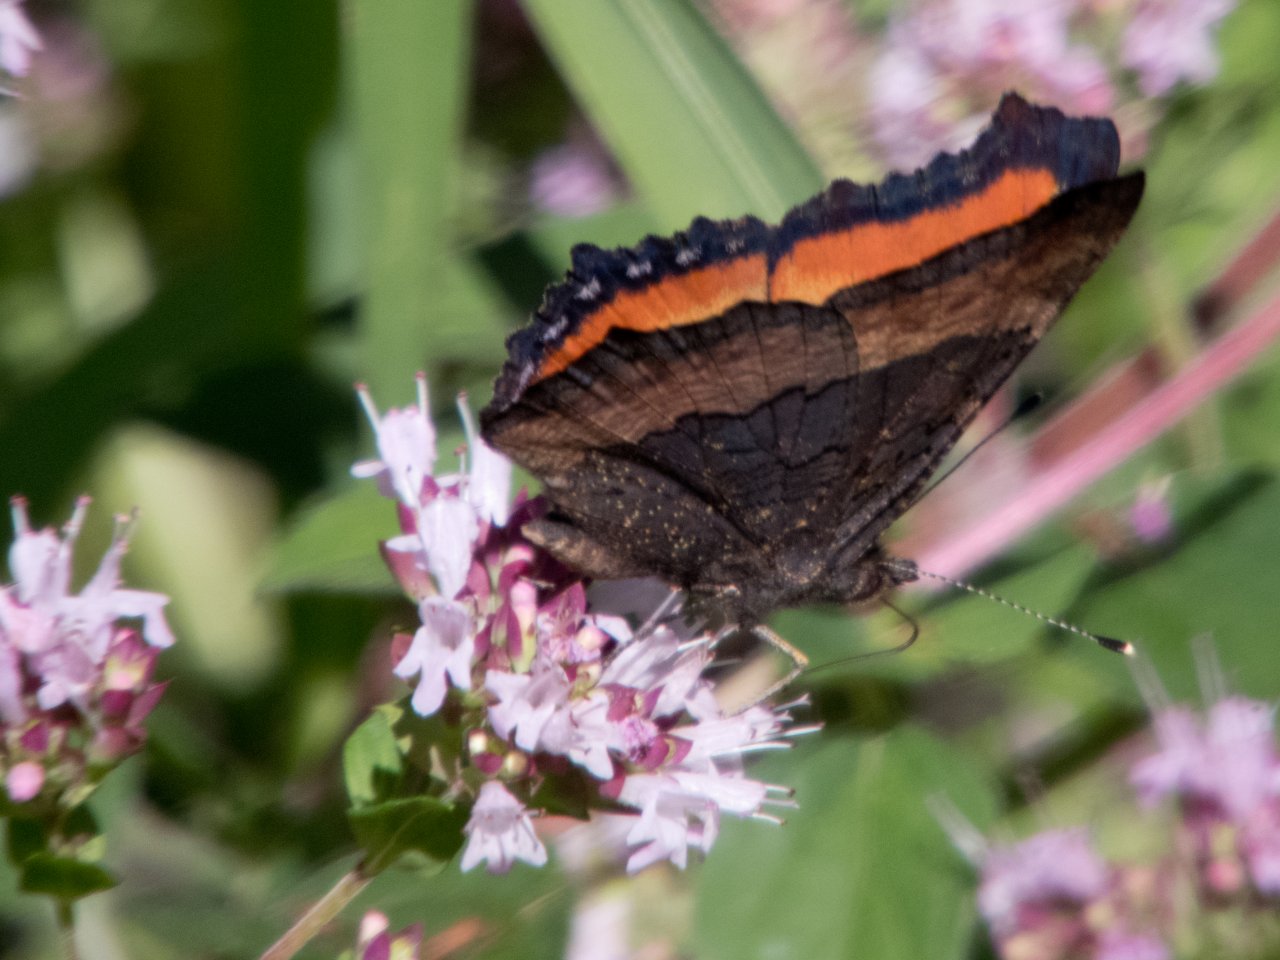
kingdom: Animalia
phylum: Arthropoda
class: Insecta
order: Lepidoptera
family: Nymphalidae
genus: Aglais
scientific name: Aglais milberti
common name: Milbert's Tortoiseshell
